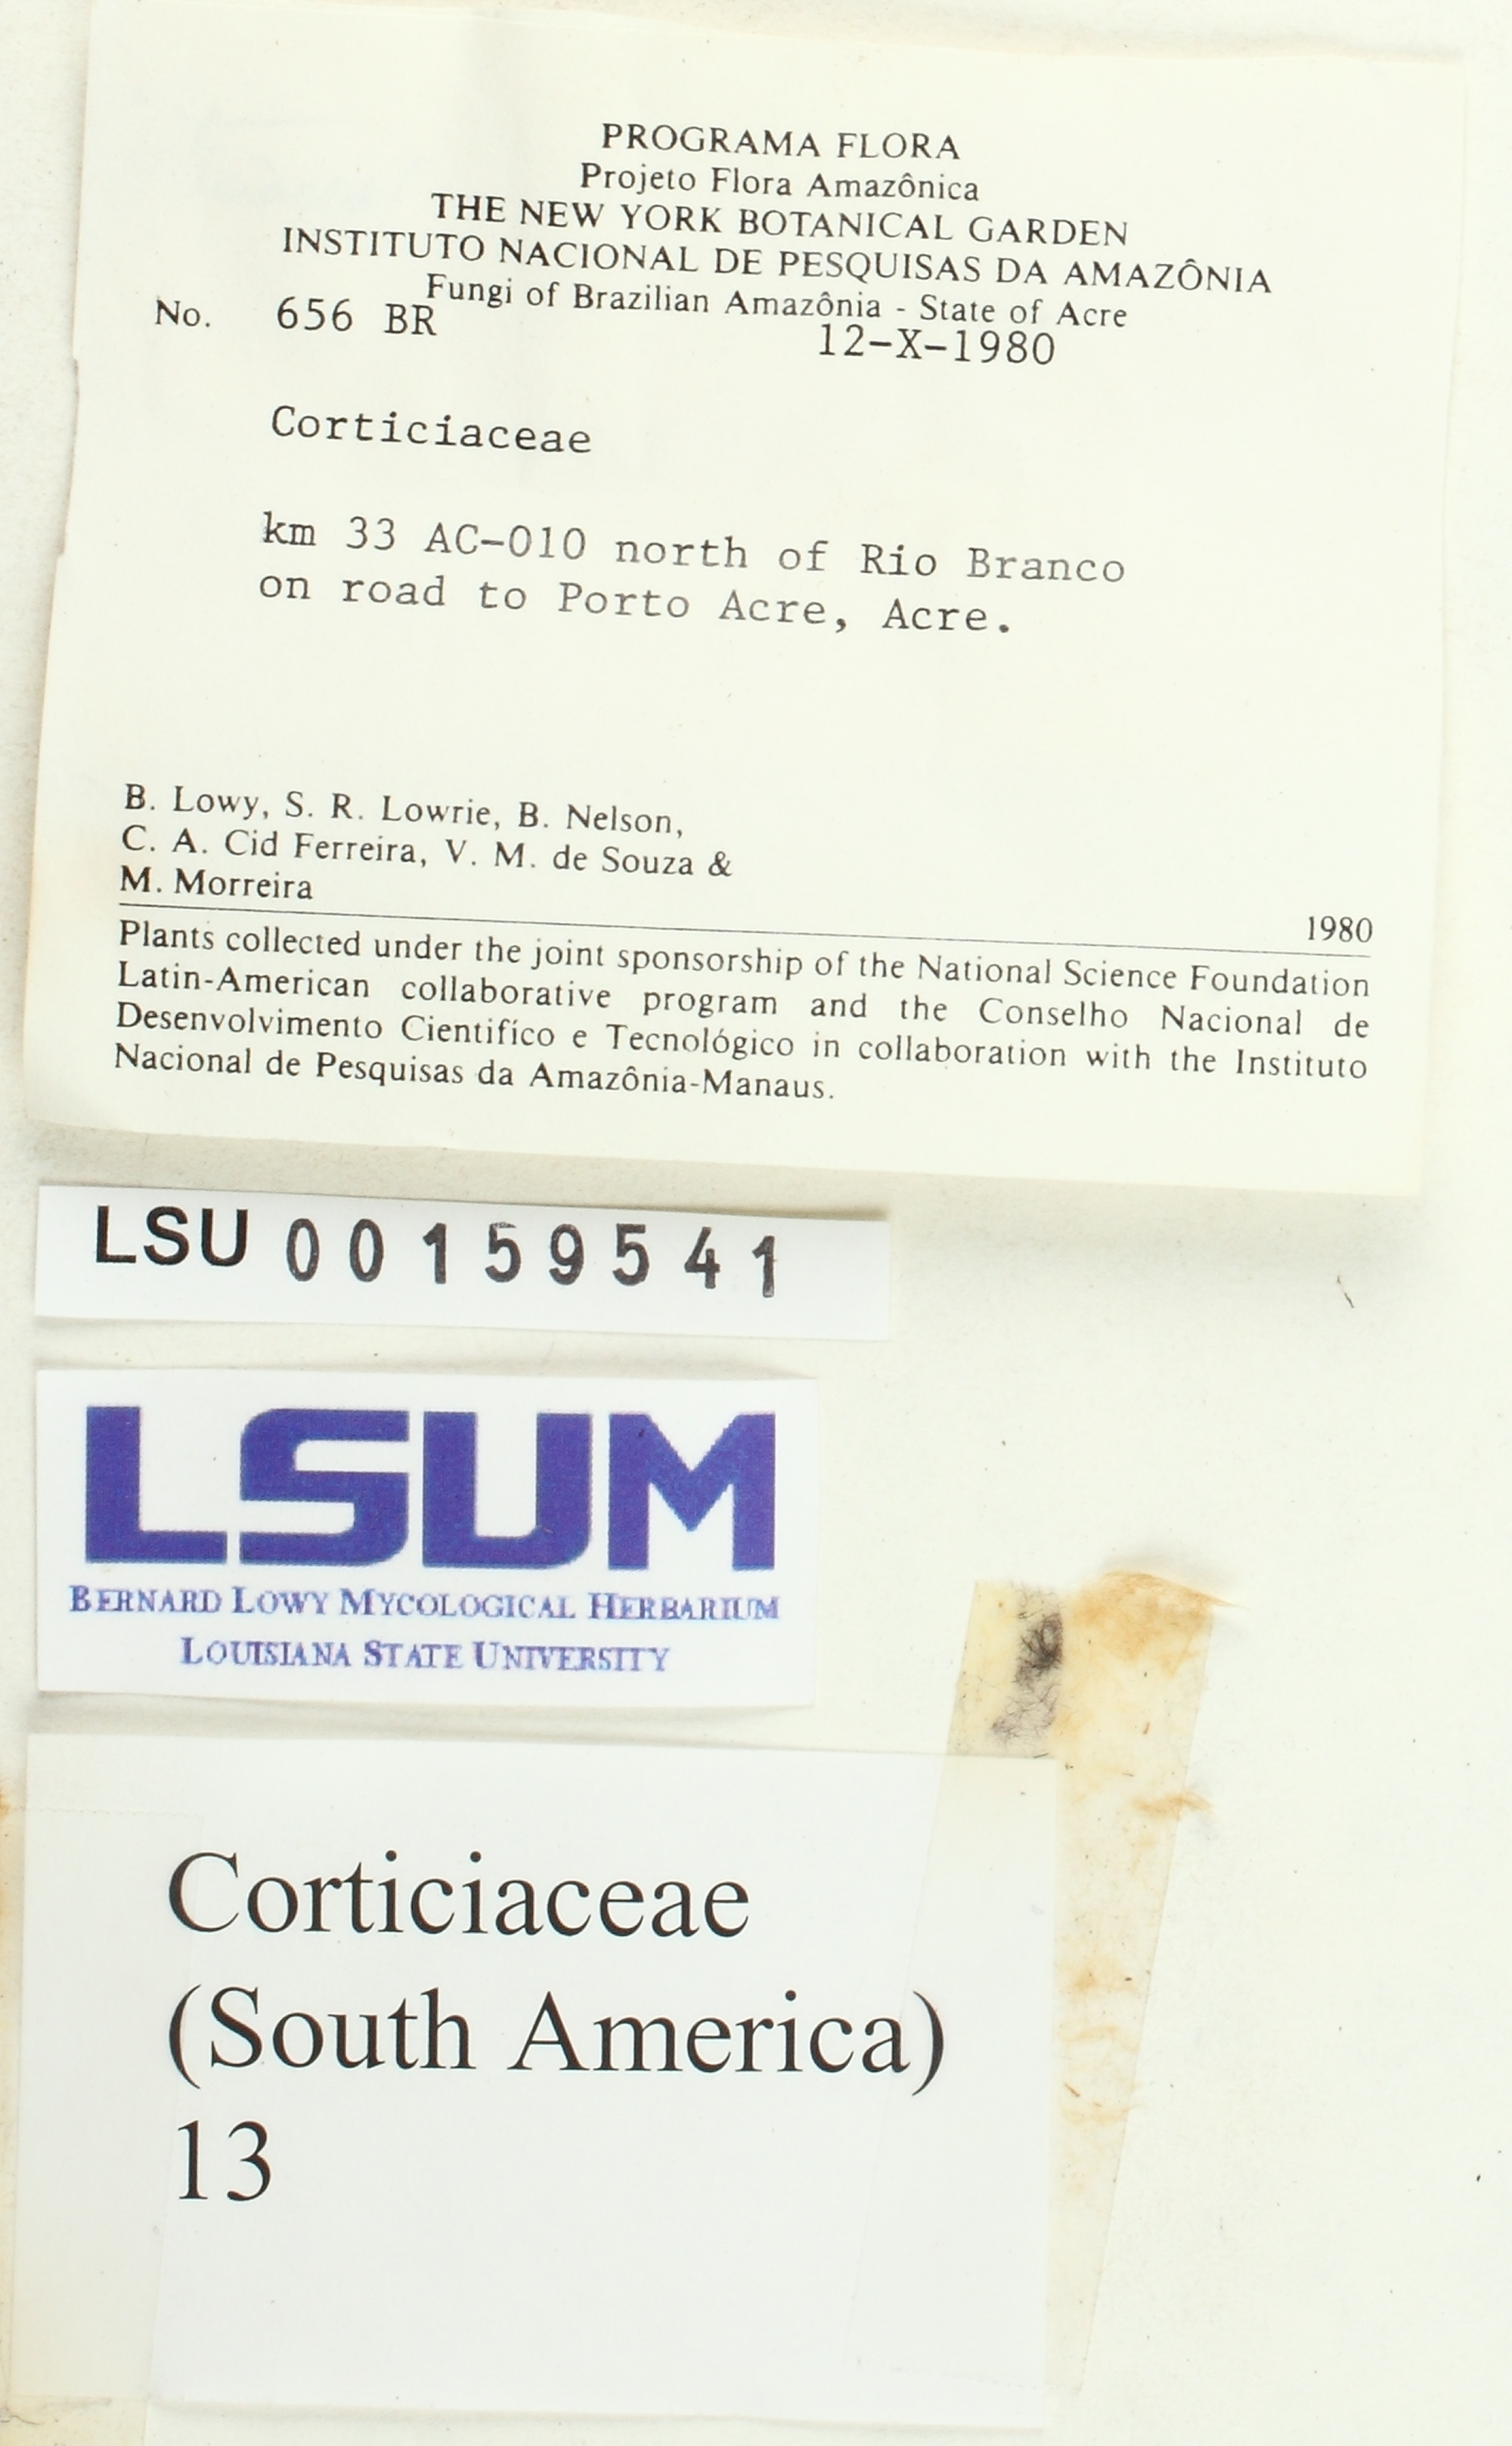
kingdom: Fungi
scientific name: Fungi
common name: Fungi
